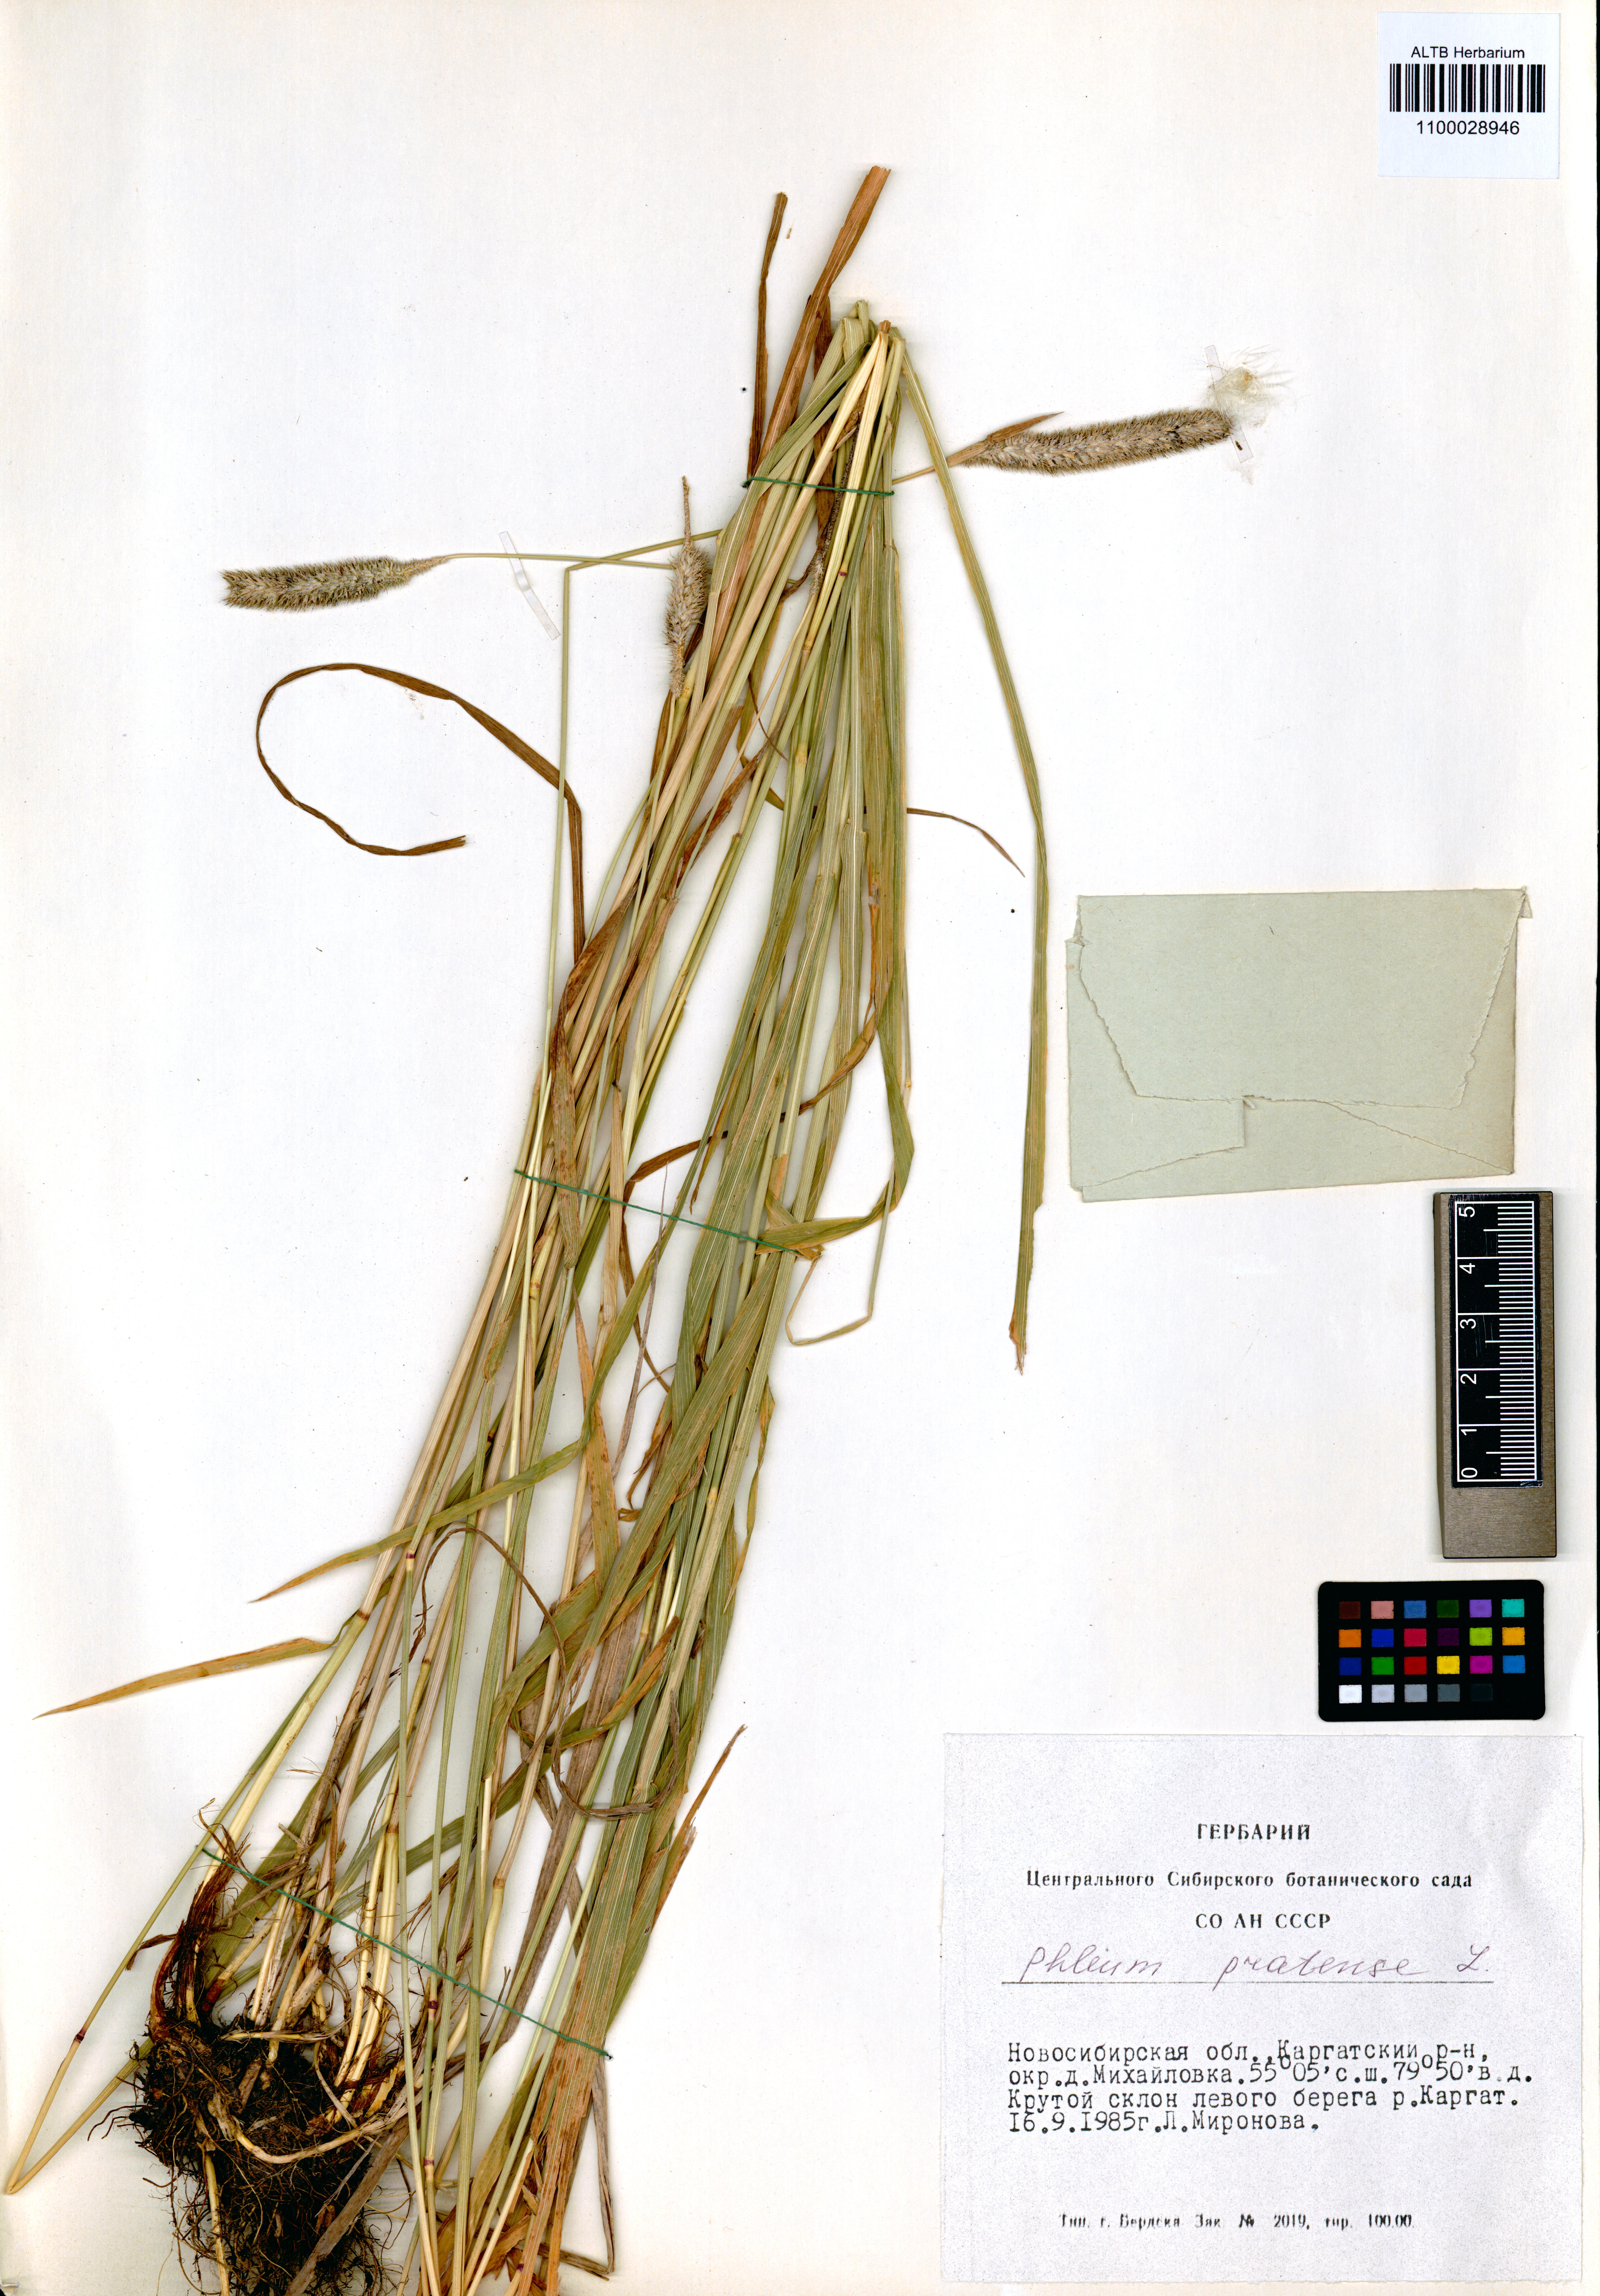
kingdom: Plantae
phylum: Tracheophyta
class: Liliopsida
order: Poales
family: Poaceae
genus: Phleum
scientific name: Phleum pratense
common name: Timothy grass
